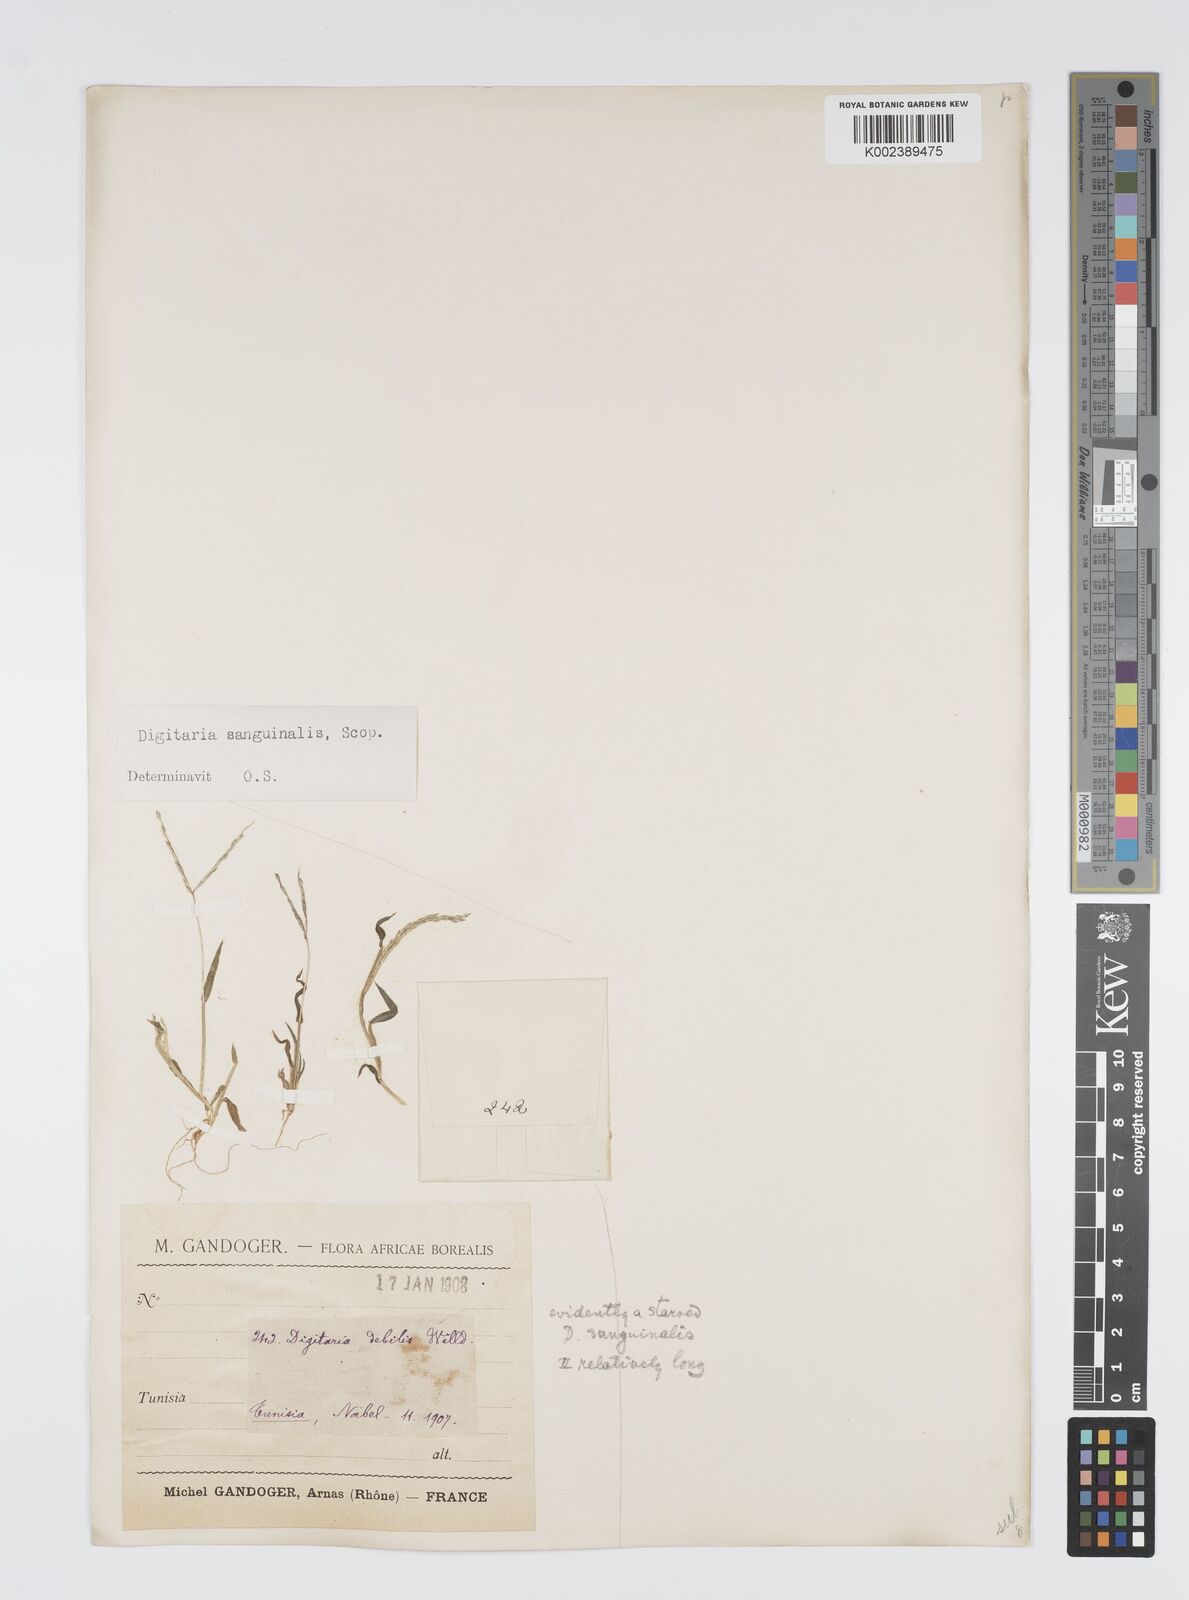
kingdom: Plantae
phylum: Tracheophyta
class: Liliopsida
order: Poales
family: Poaceae
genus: Digitaria
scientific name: Digitaria nuda
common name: Naked crabgrass
